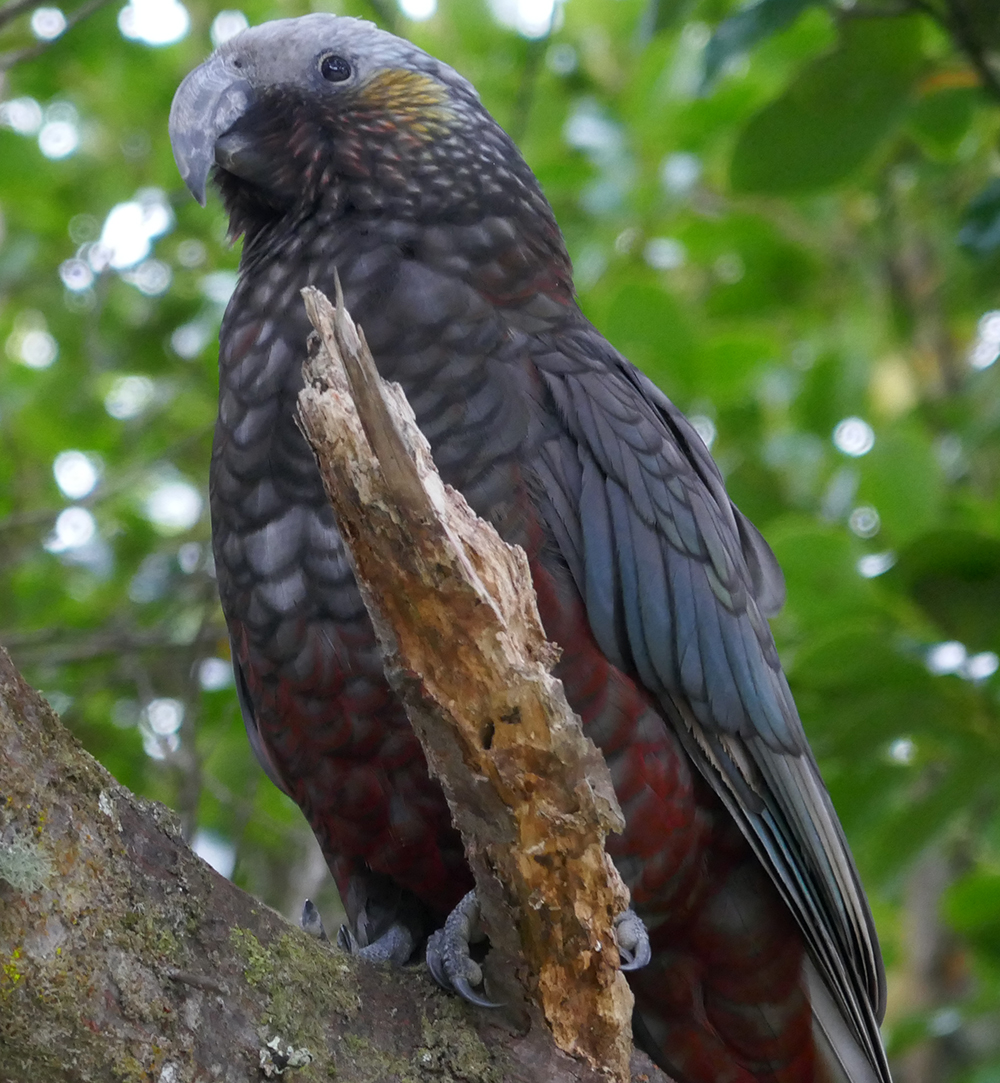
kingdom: Animalia
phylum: Chordata
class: Aves
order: Psittaciformes
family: Psittacidae
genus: Nestor
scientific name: Nestor meridionalis
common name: New zealand kaka
